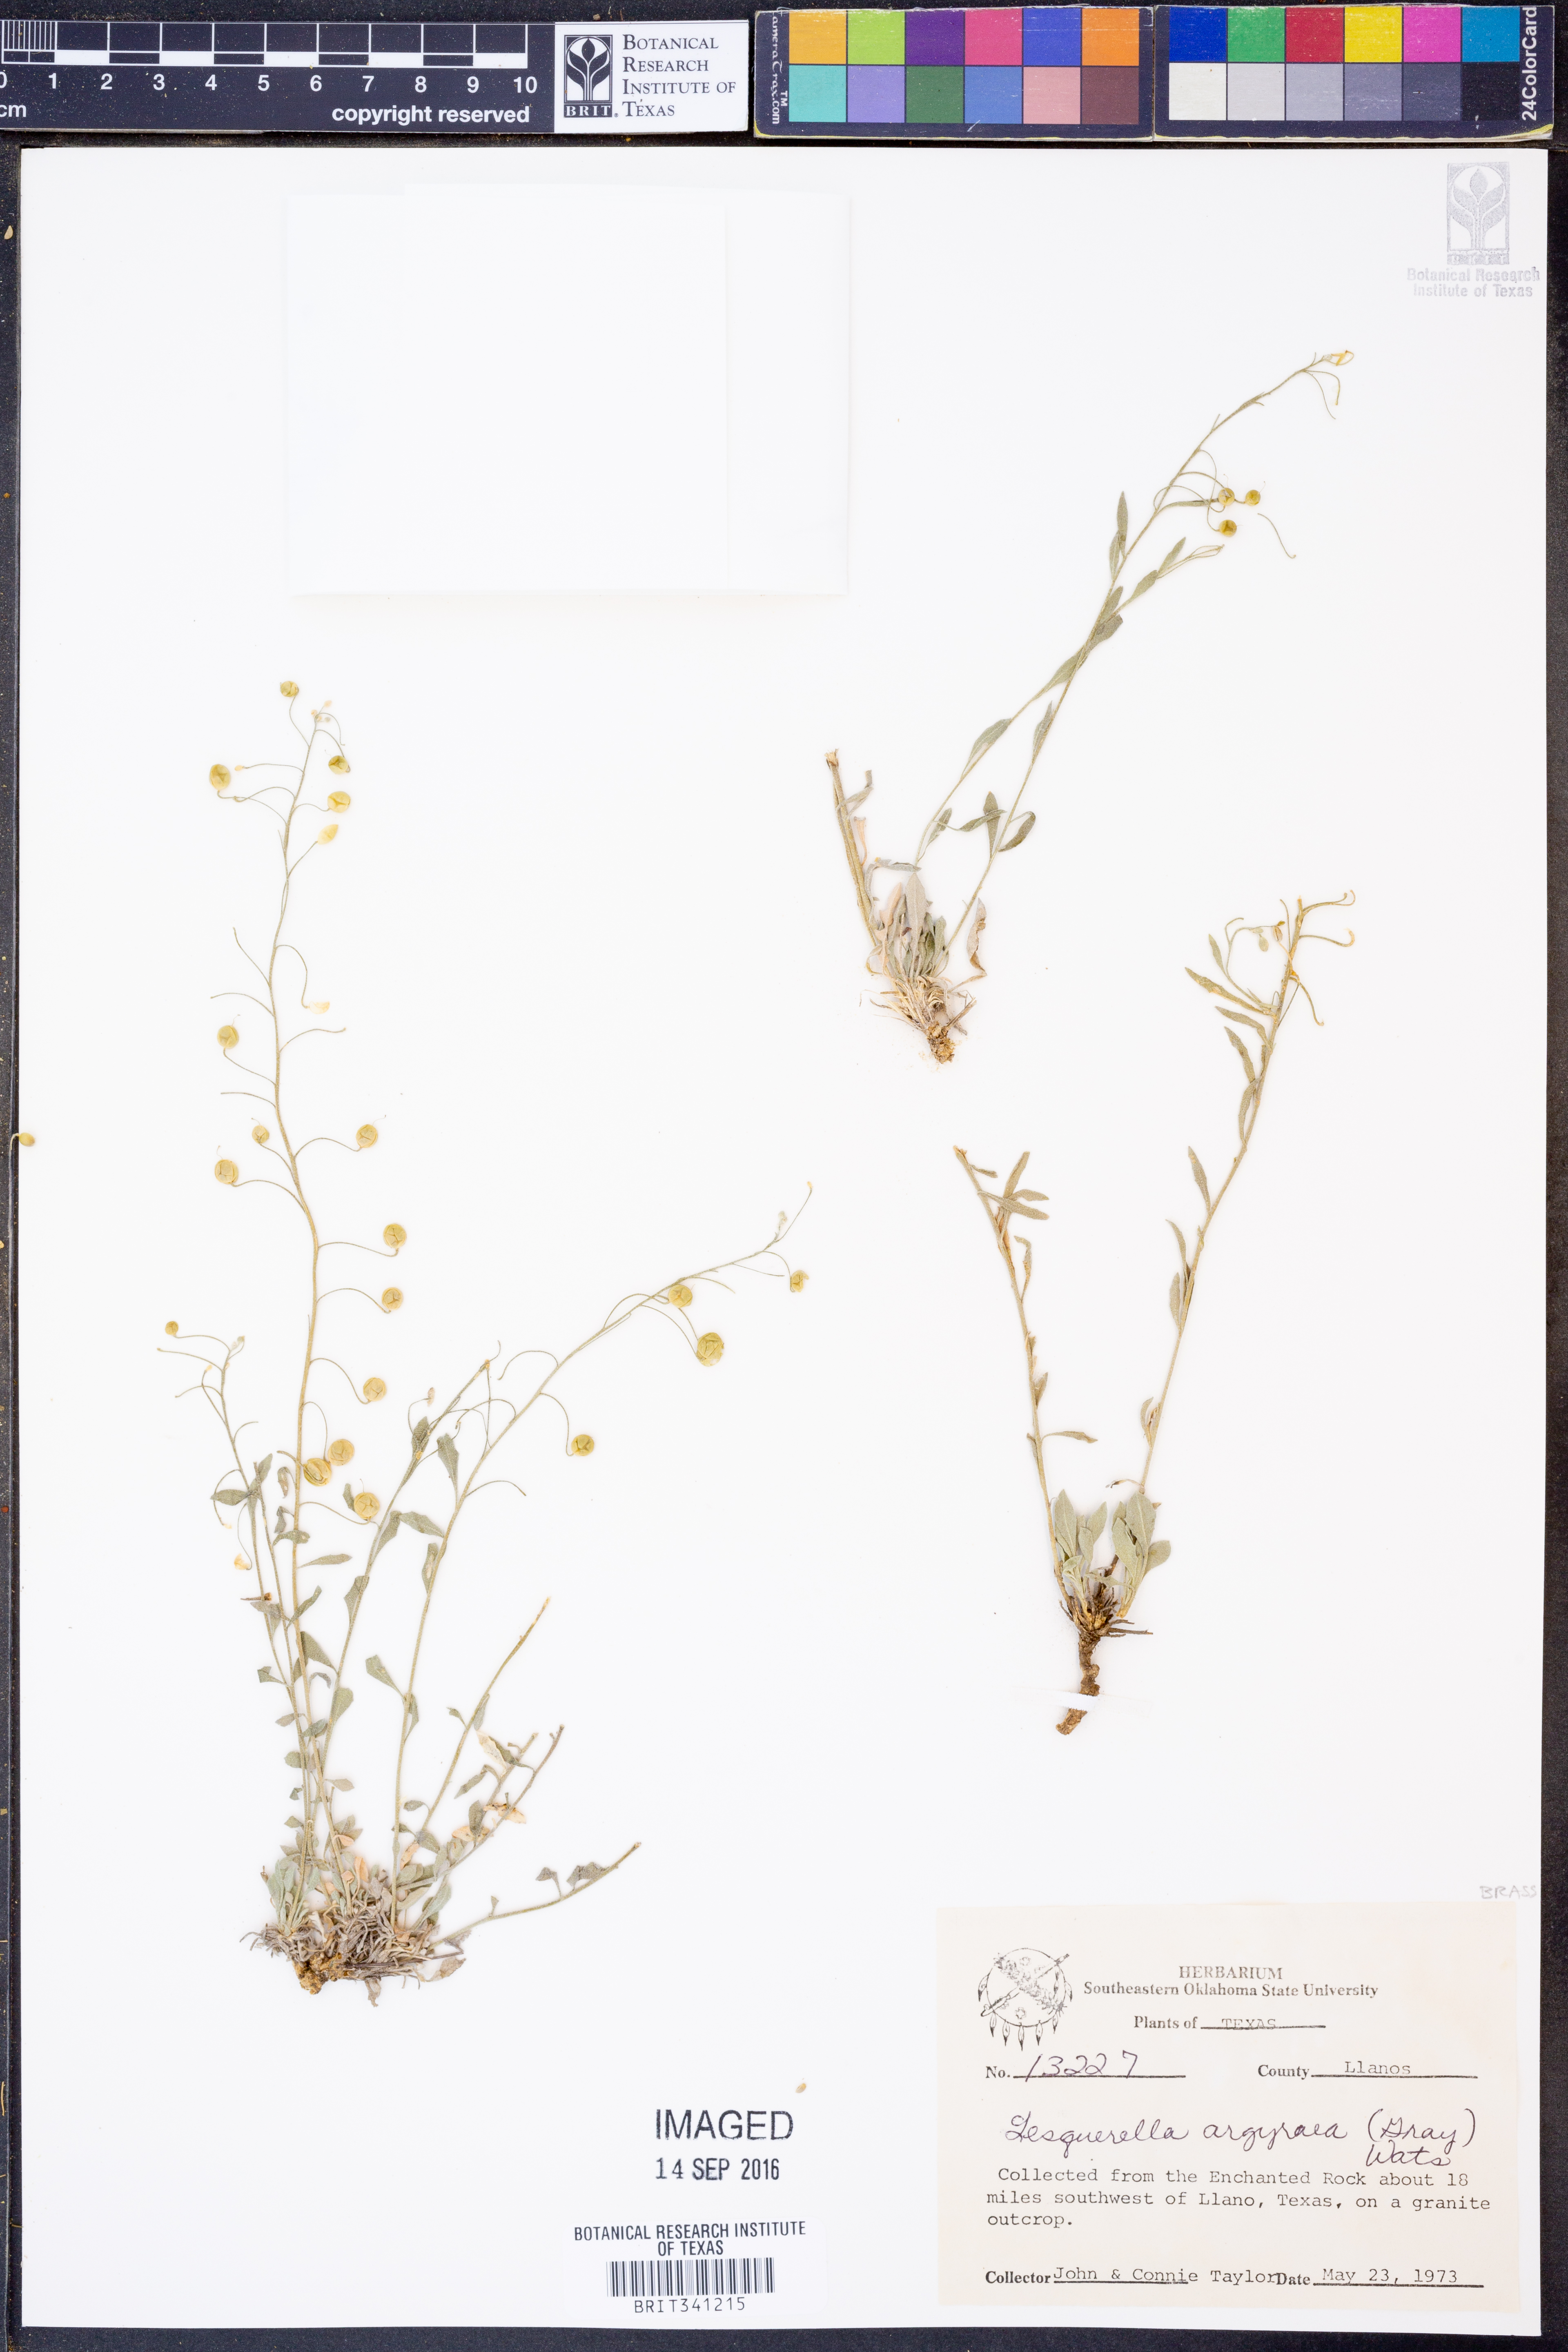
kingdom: Plantae
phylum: Tracheophyta
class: Magnoliopsida
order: Brassicales
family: Brassicaceae
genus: Physaria
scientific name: Physaria argyraea
